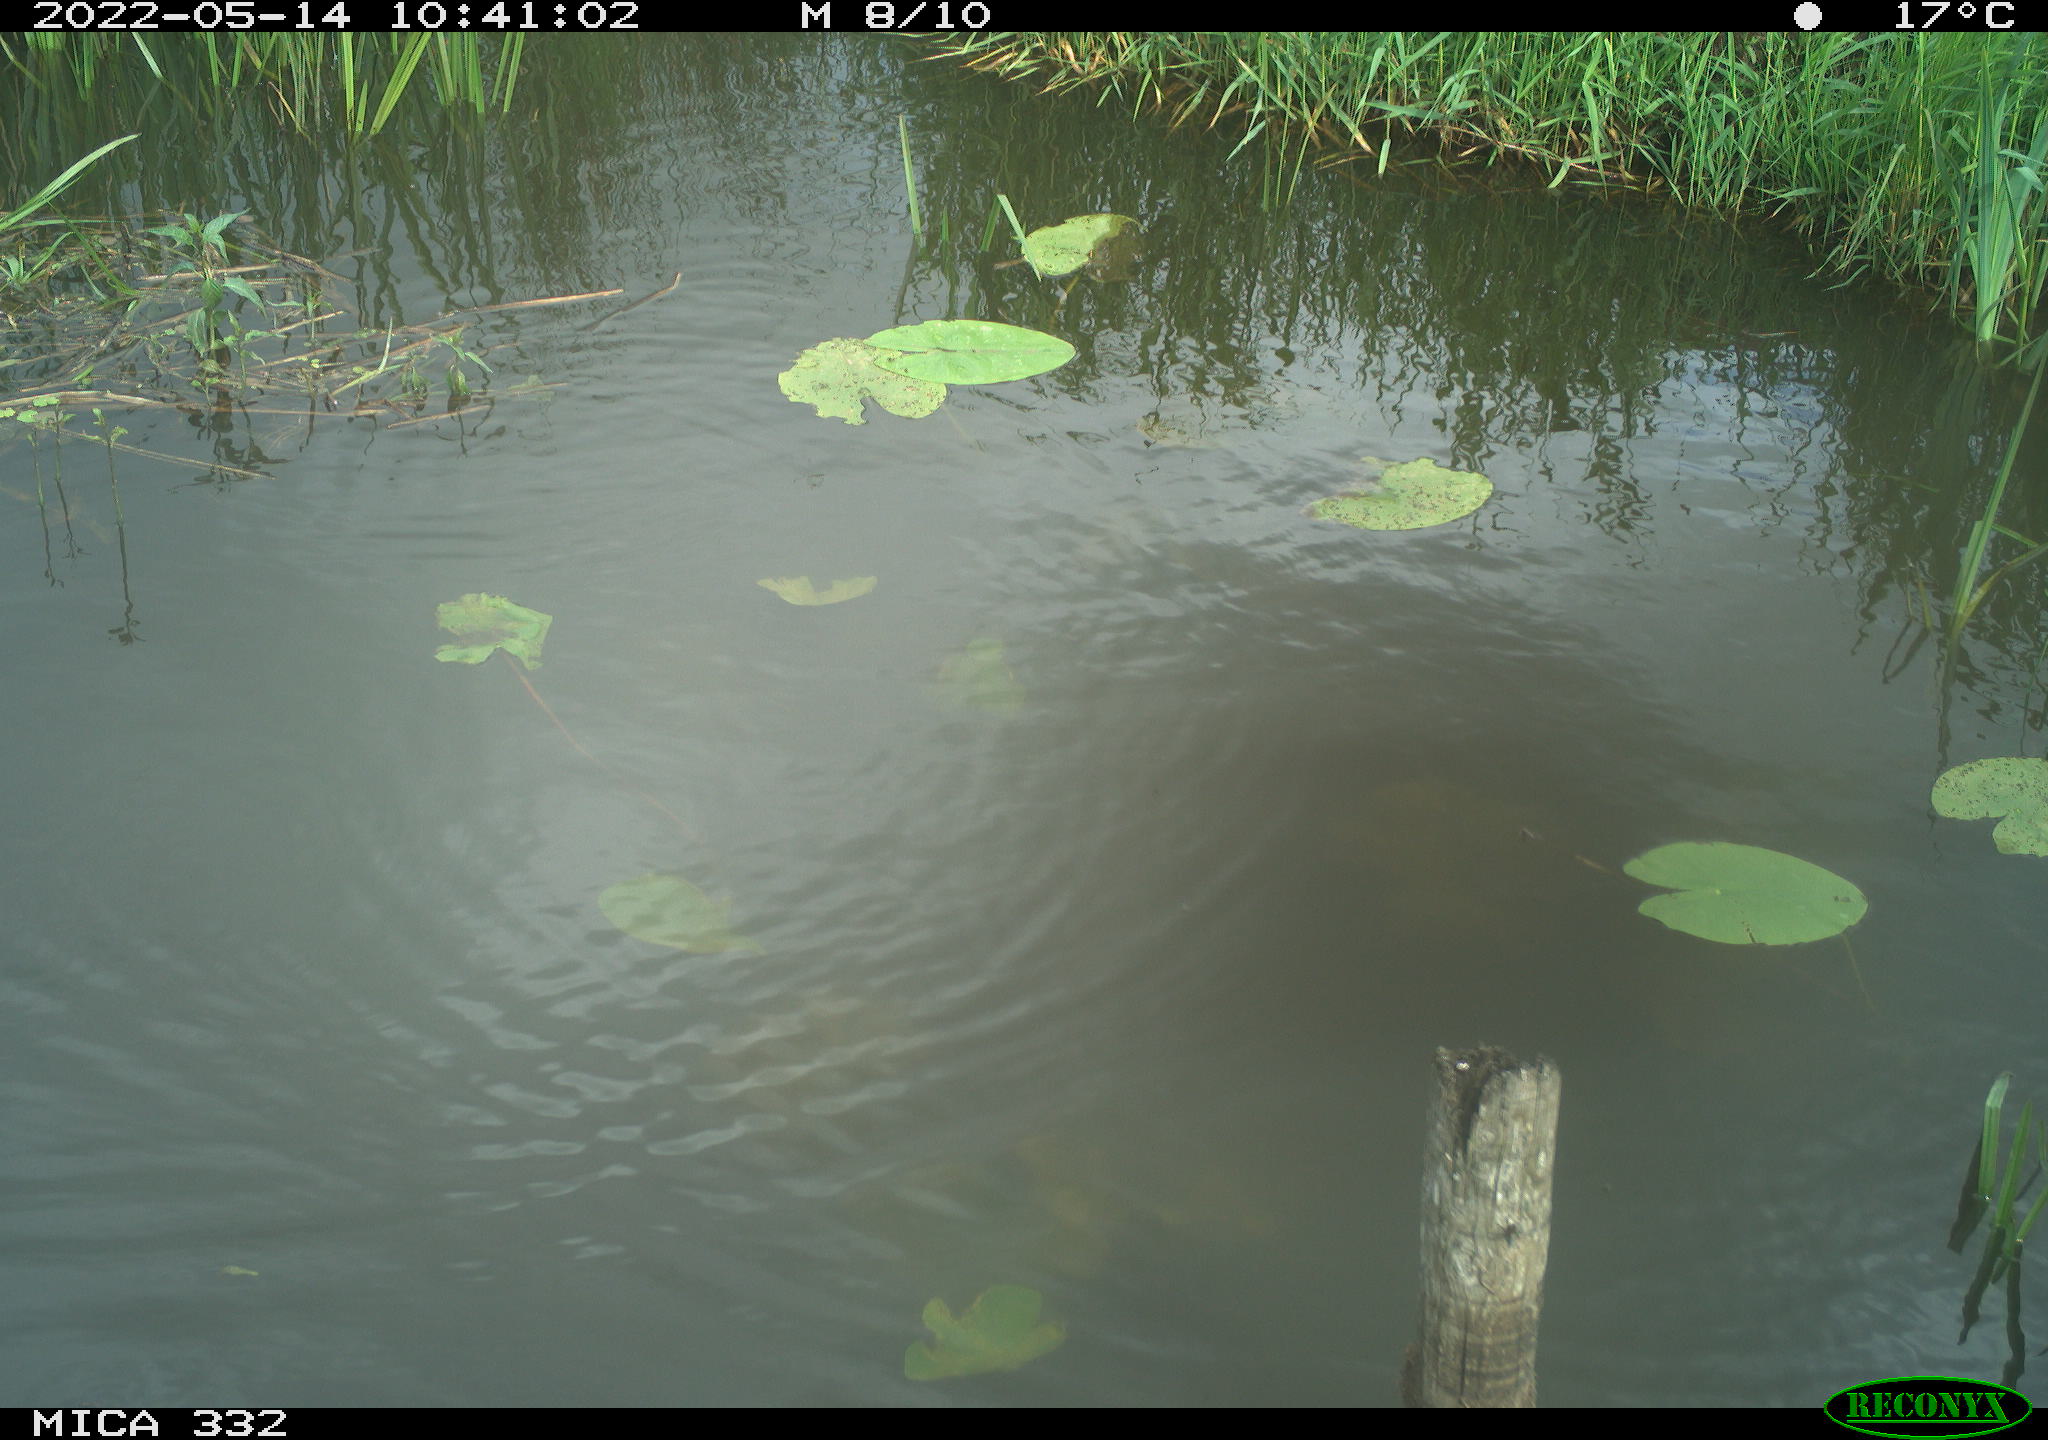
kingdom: Animalia
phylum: Chordata
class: Aves
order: Anseriformes
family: Anatidae
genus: Anas
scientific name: Anas platyrhynchos
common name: Mallard
